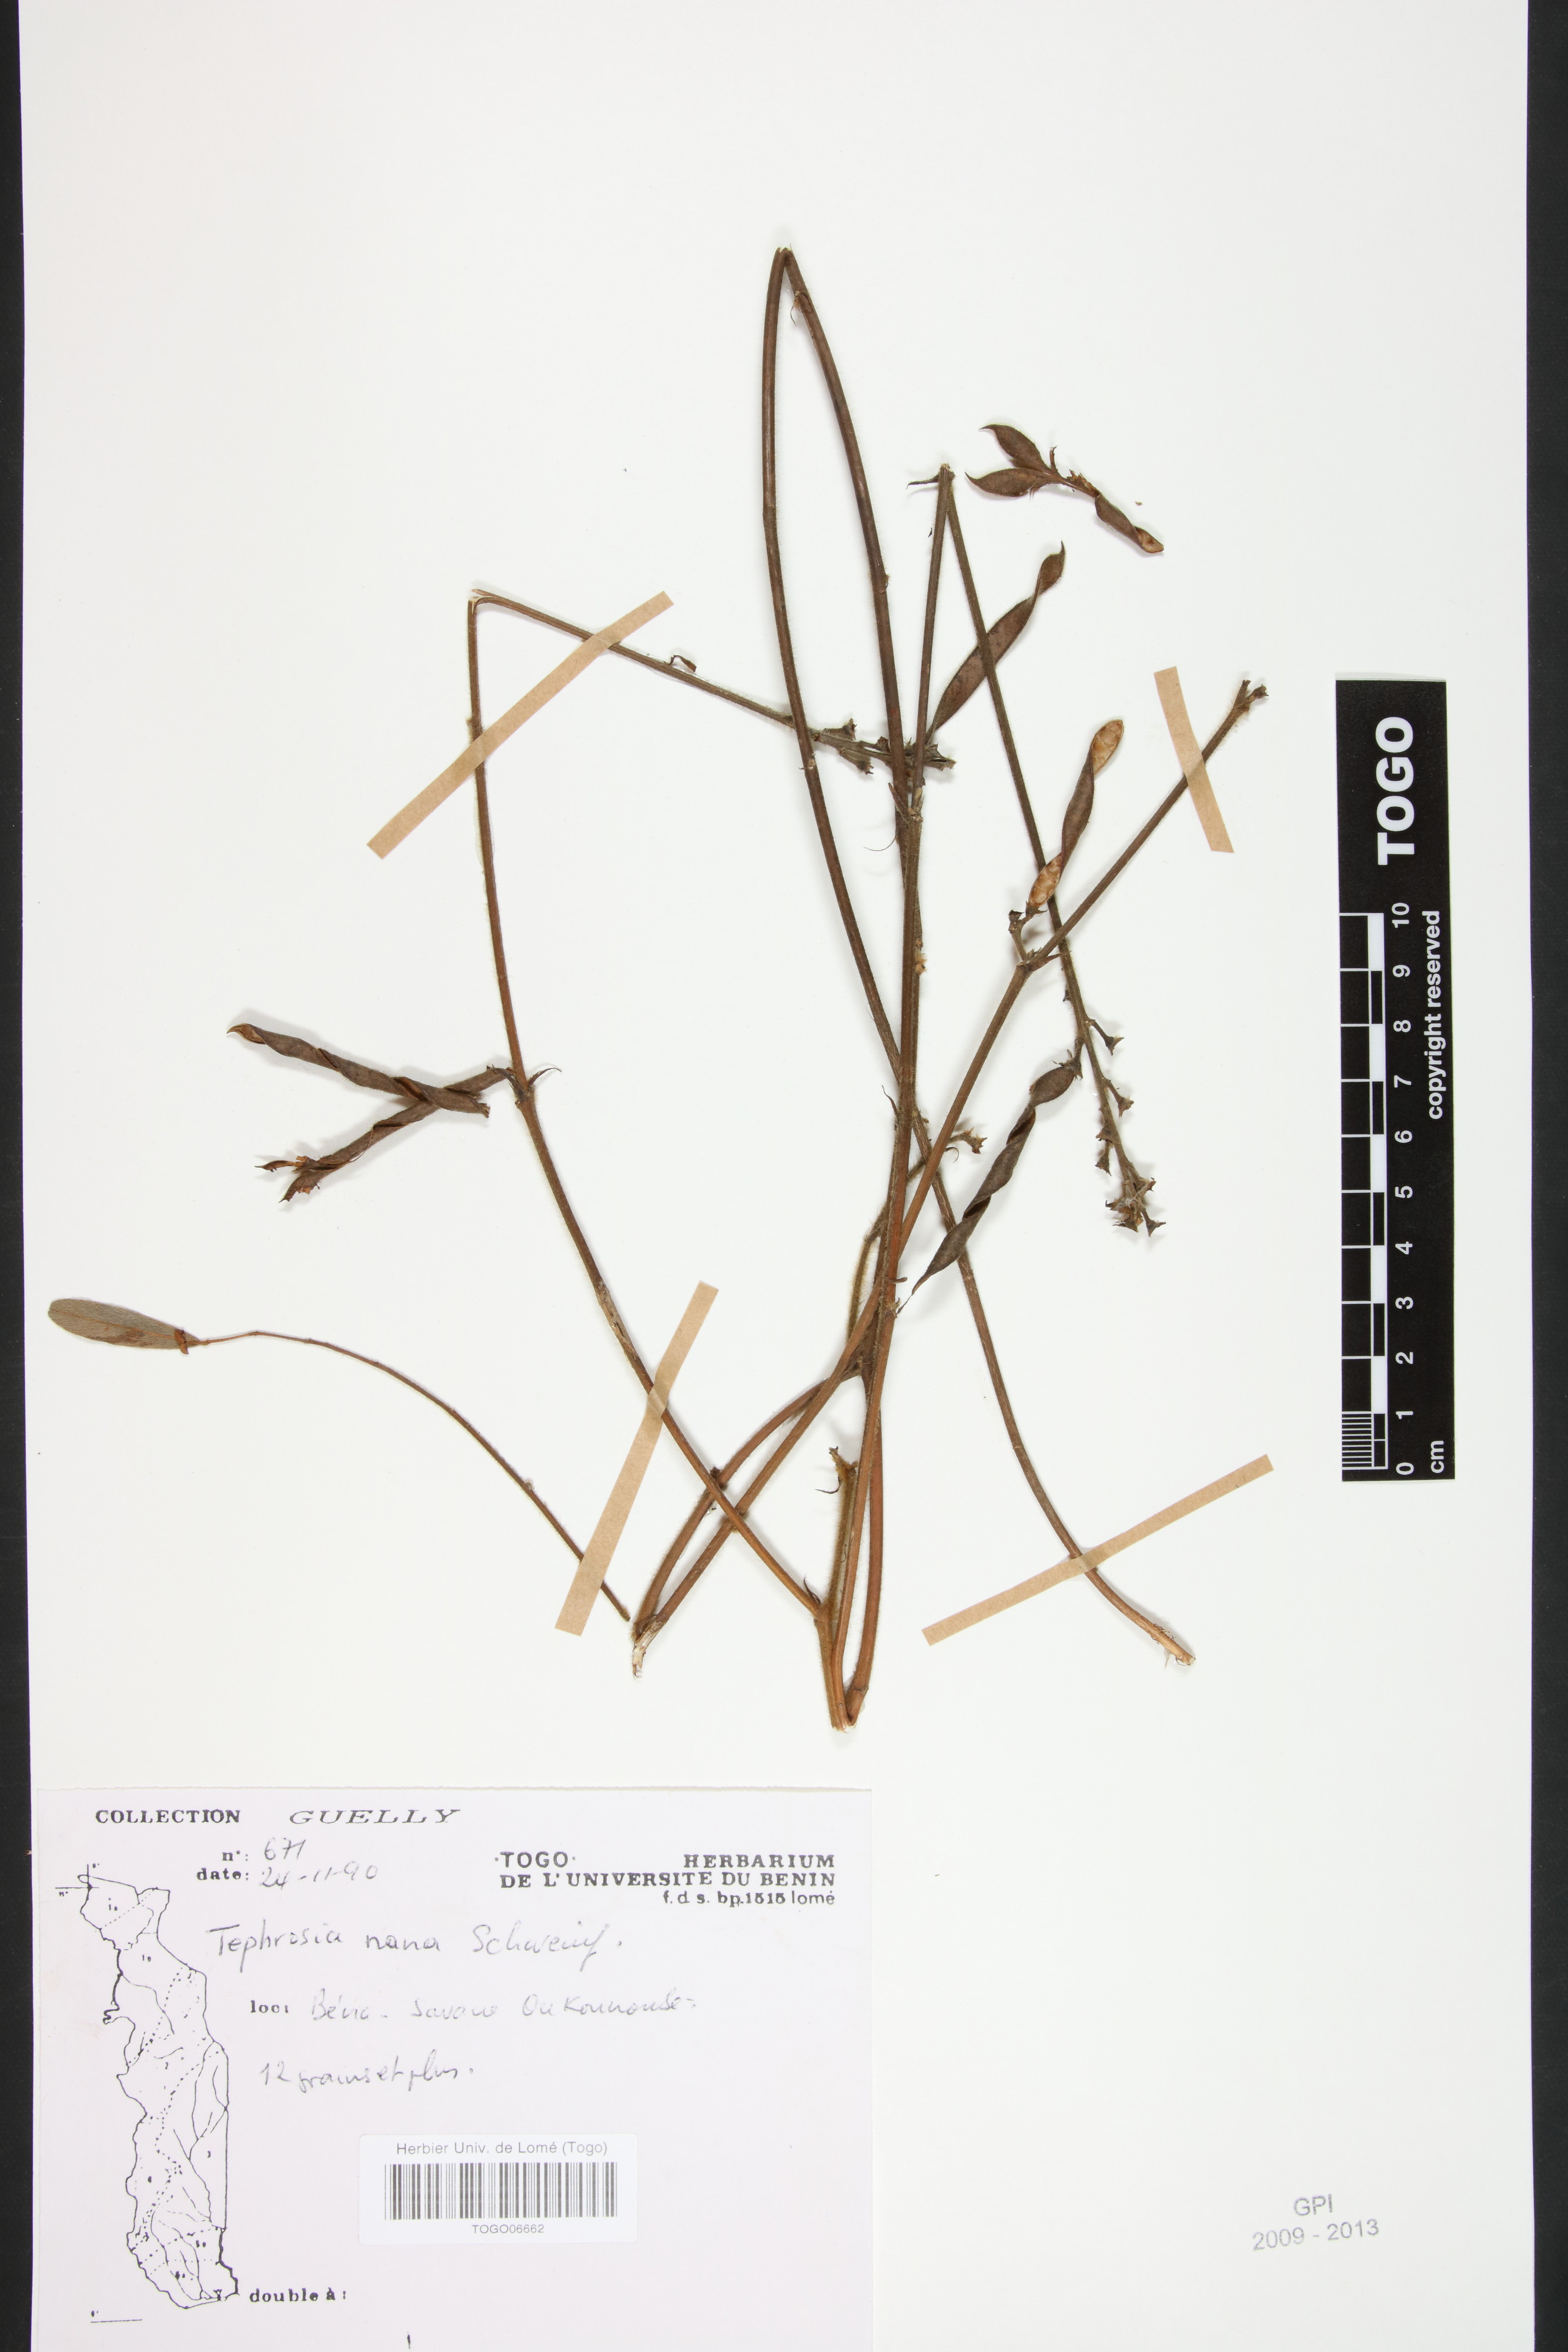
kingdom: Plantae
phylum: Tracheophyta
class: Magnoliopsida
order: Fabales
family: Fabaceae
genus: Tephrosia
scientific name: Tephrosia mossiensis
